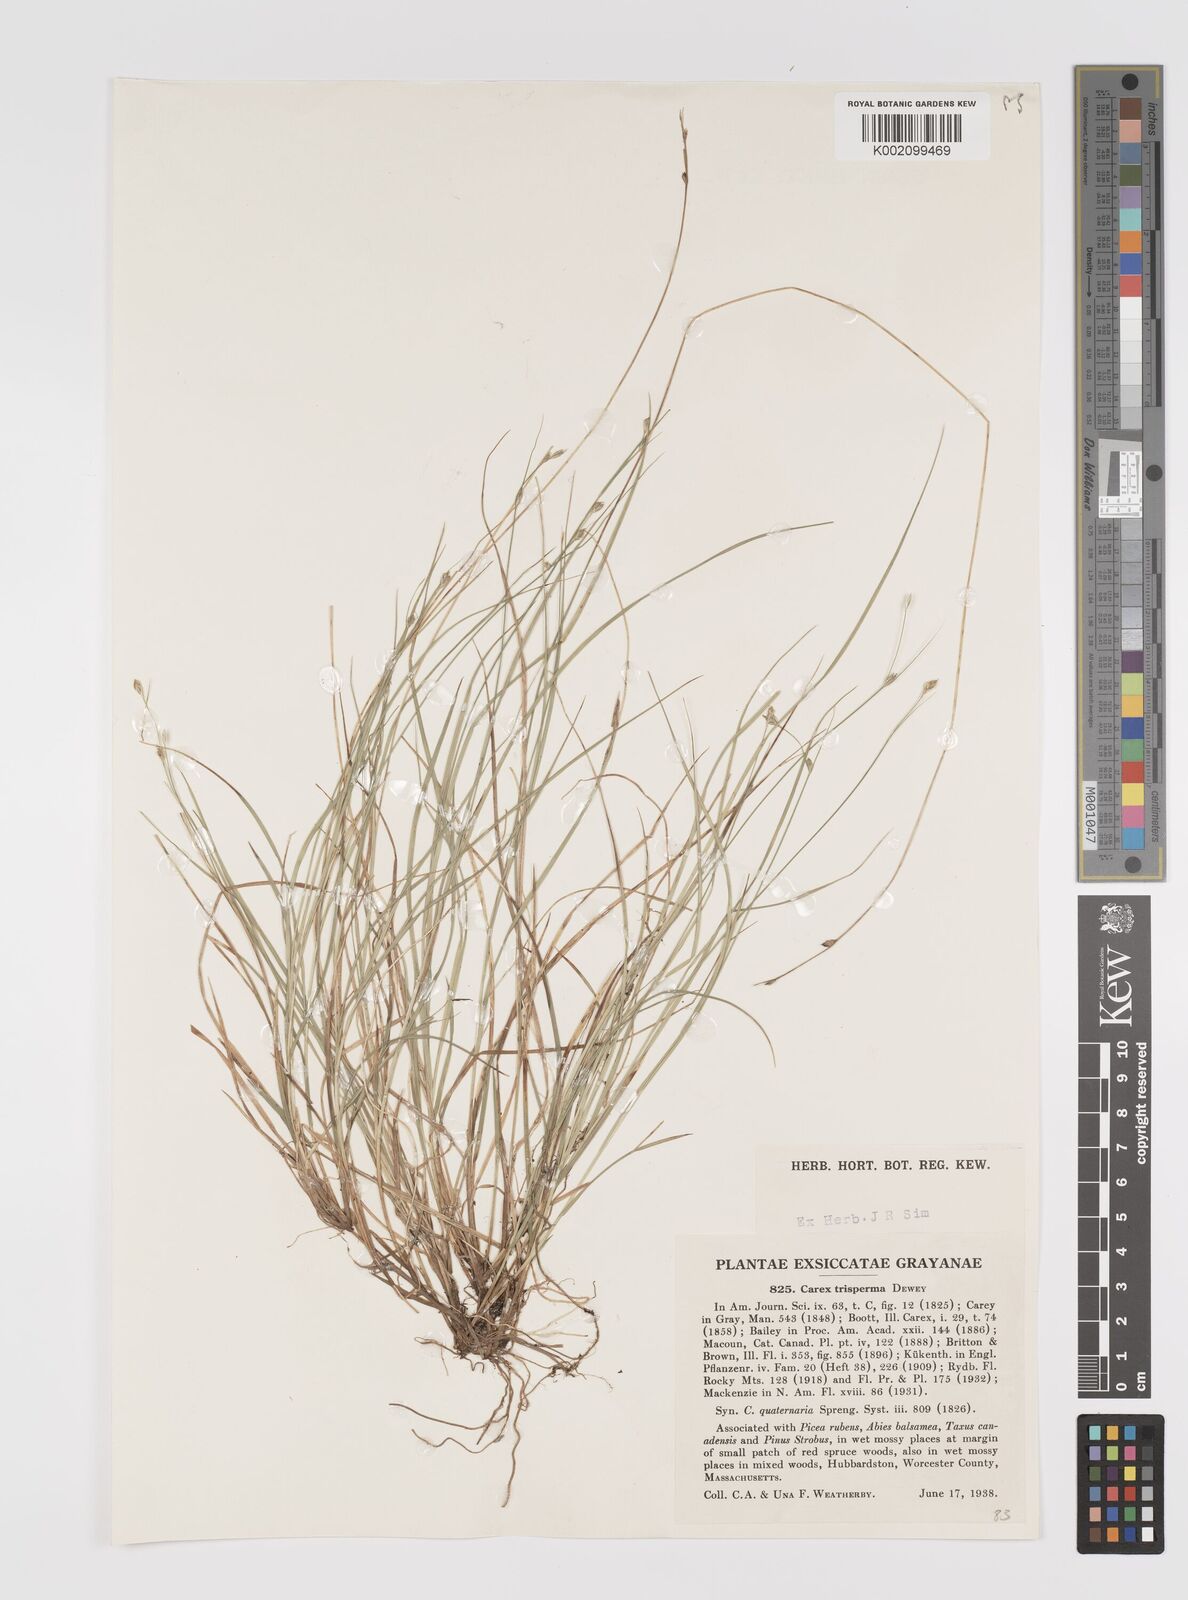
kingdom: Plantae
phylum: Tracheophyta
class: Liliopsida
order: Poales
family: Cyperaceae
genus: Carex
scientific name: Carex trisperma
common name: Three-seeded sedge
